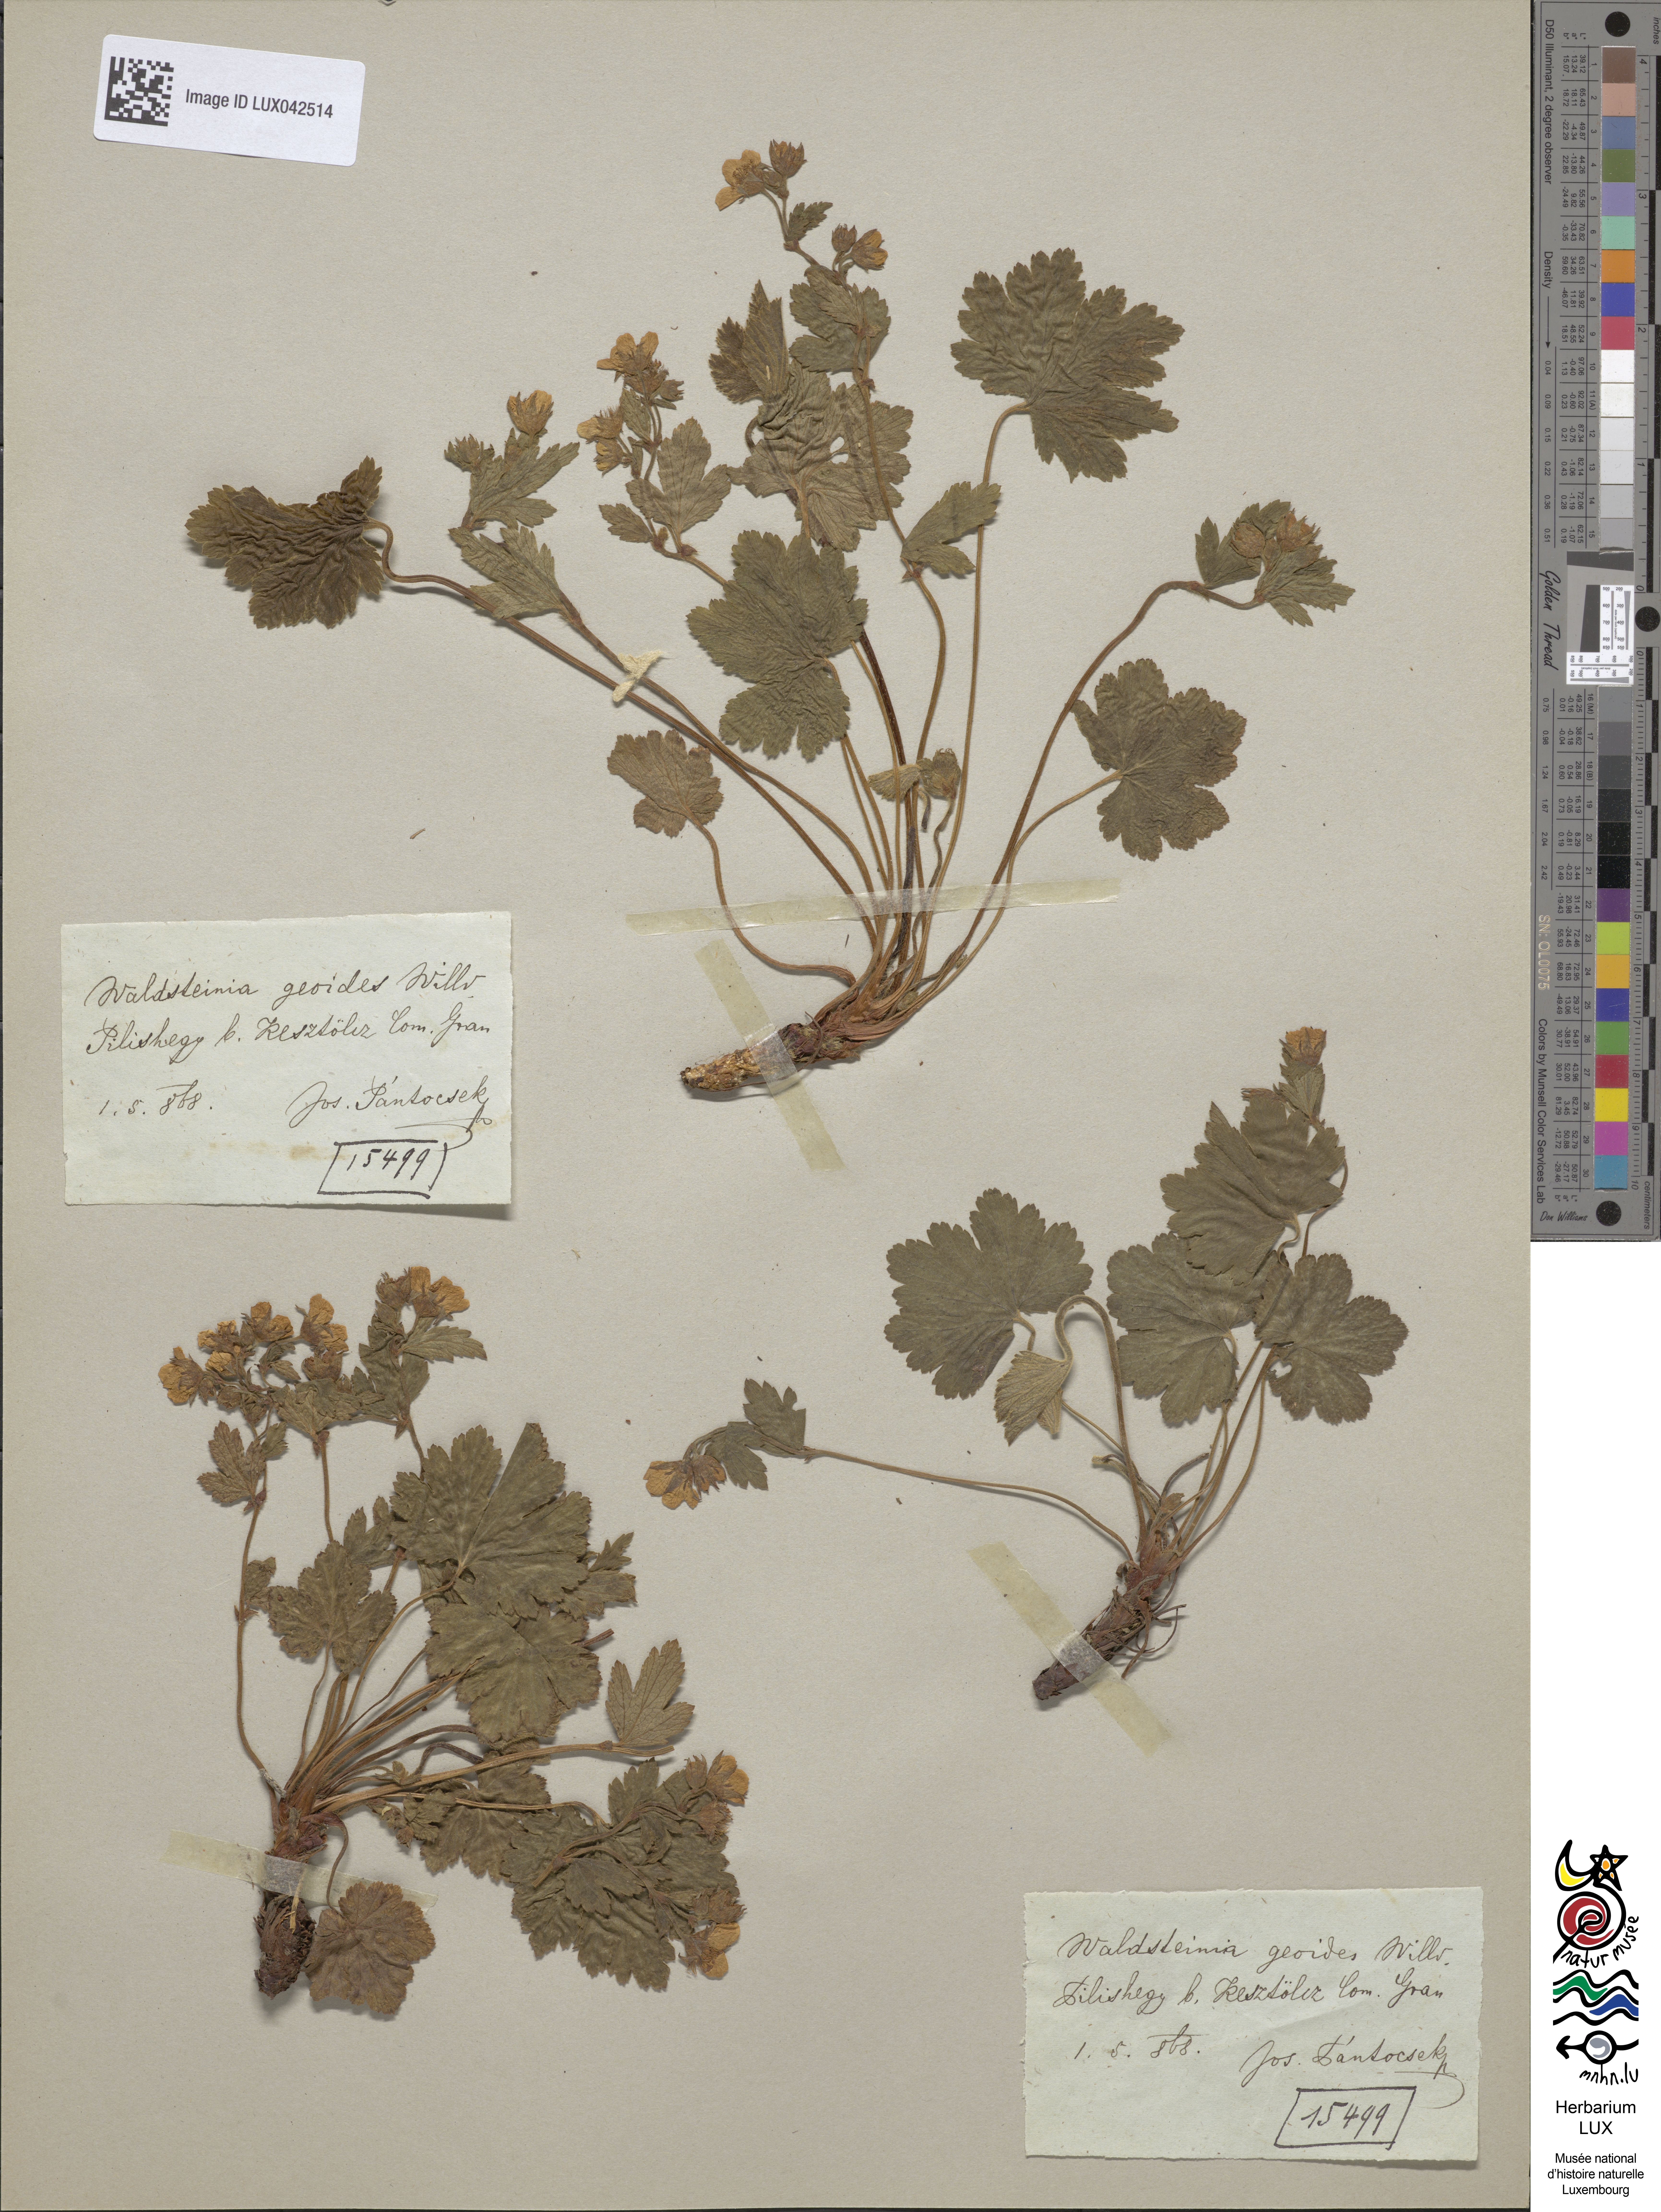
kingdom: Plantae
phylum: Tracheophyta
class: Magnoliopsida
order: Rosales
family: Rosaceae
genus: Geum
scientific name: Geum waldsteinia
